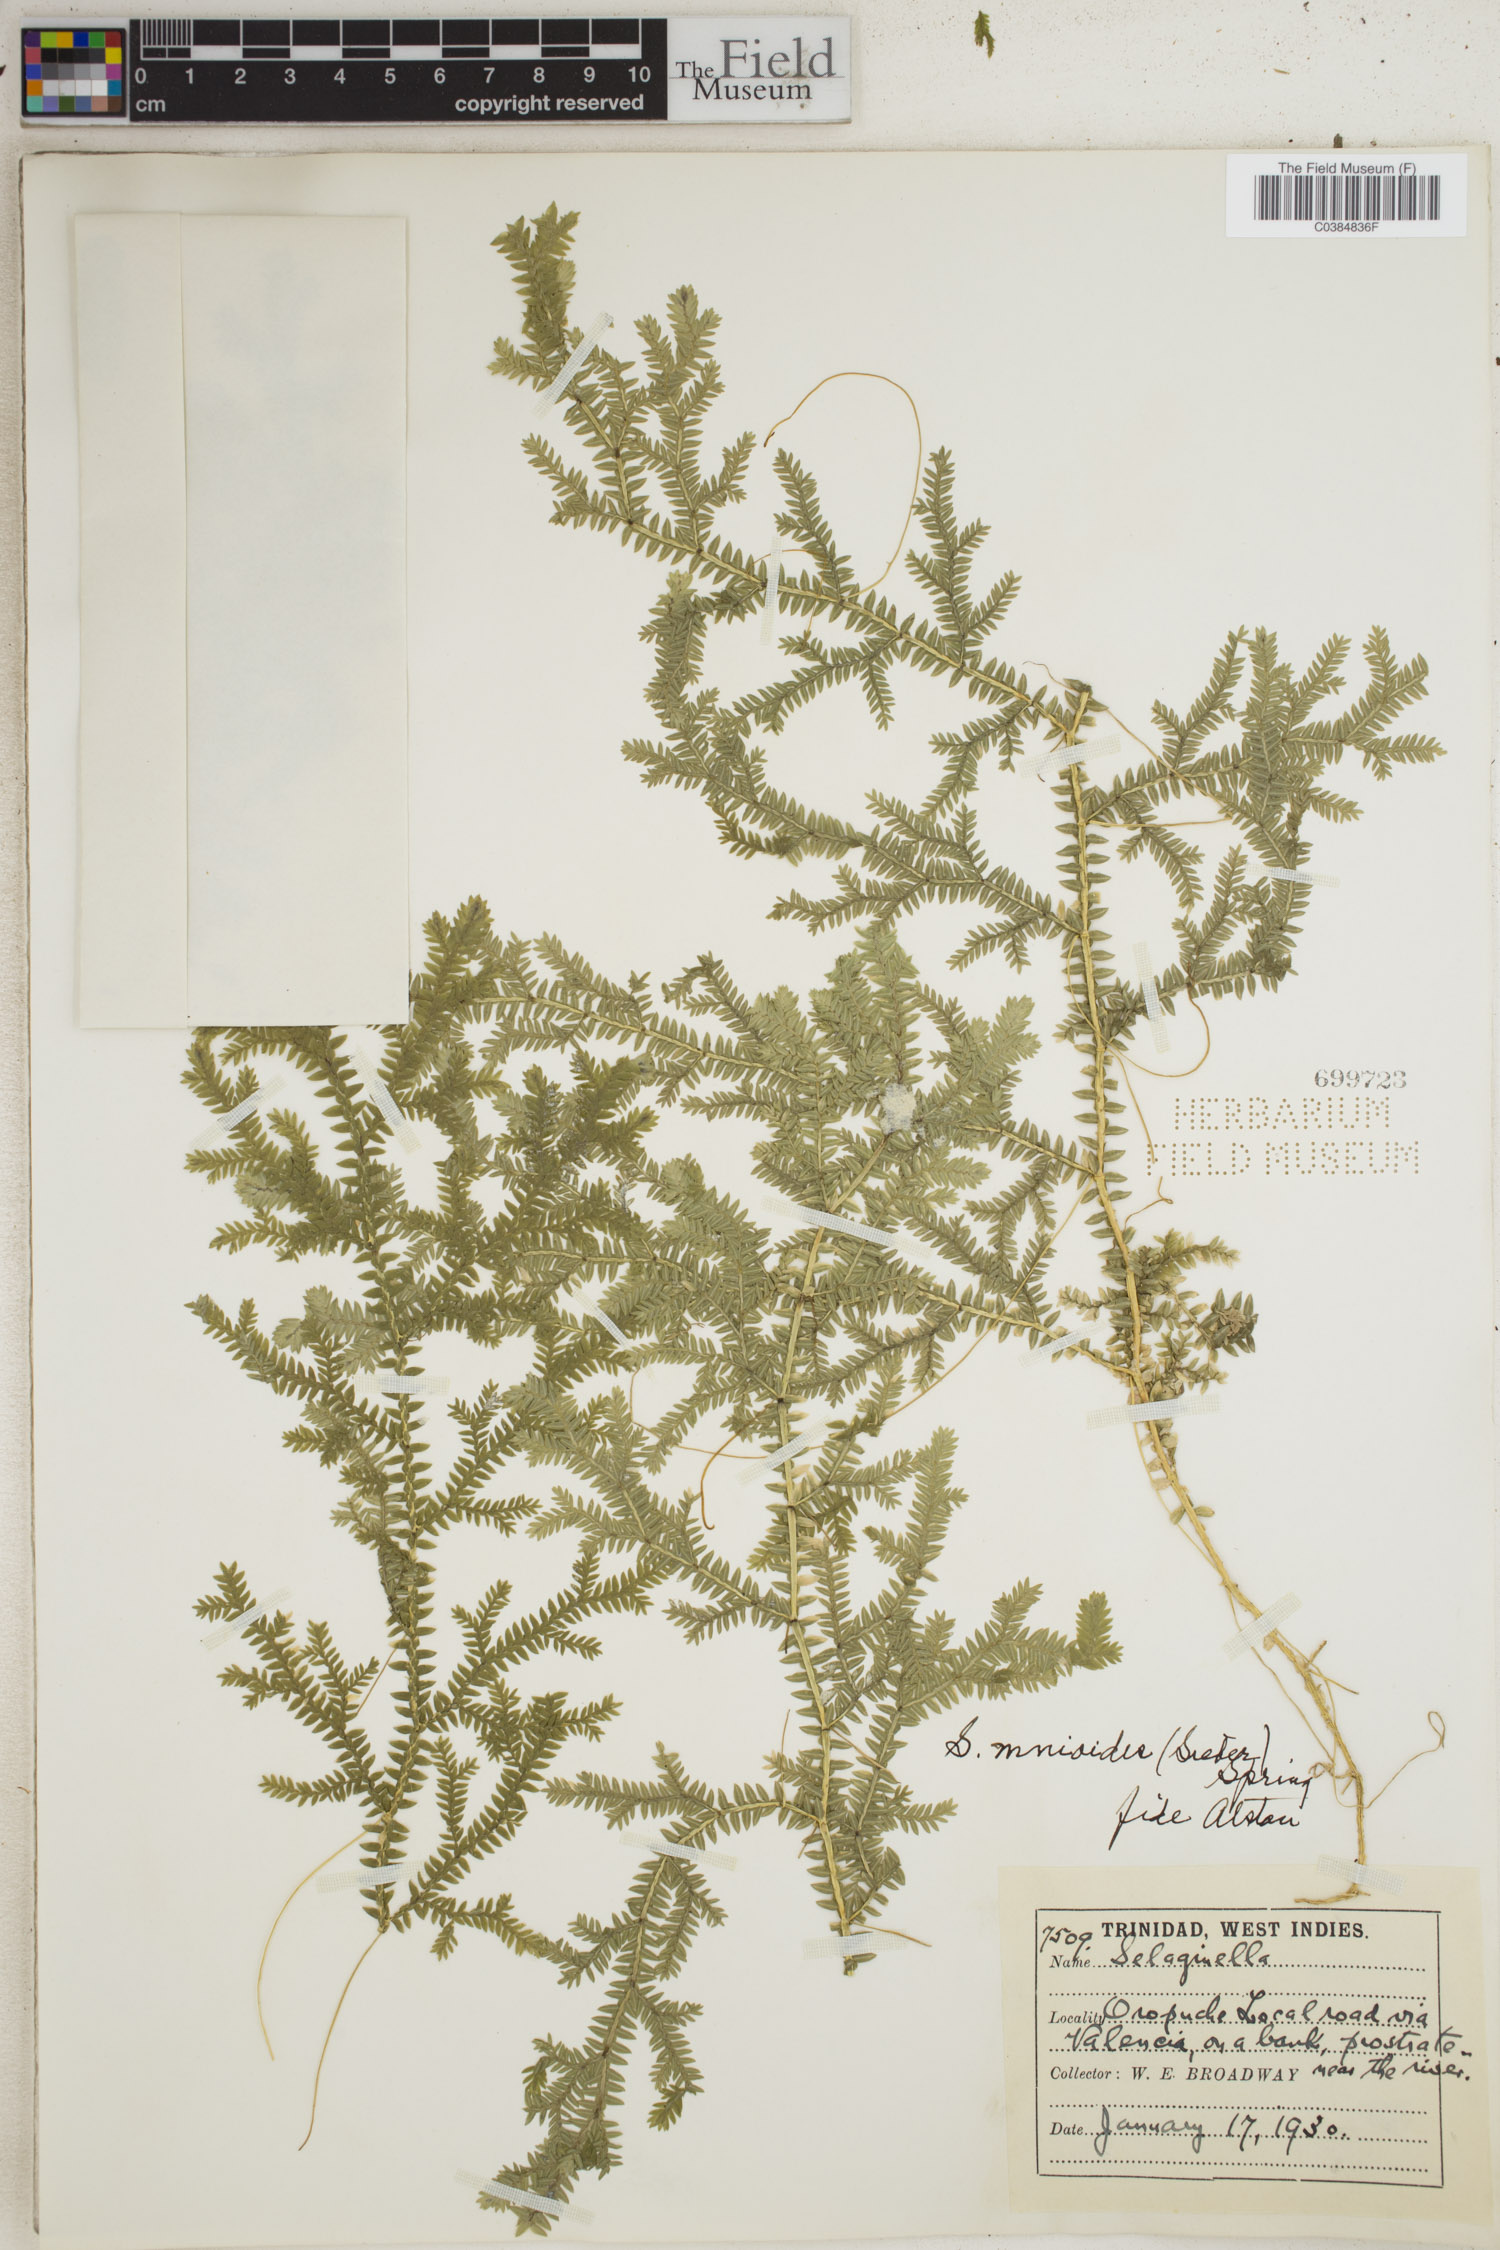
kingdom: Plantae
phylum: Tracheophyta
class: Lycopodiopsida
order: Selaginellales
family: Selaginellaceae
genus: Selaginella
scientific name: Selaginella diffusa
